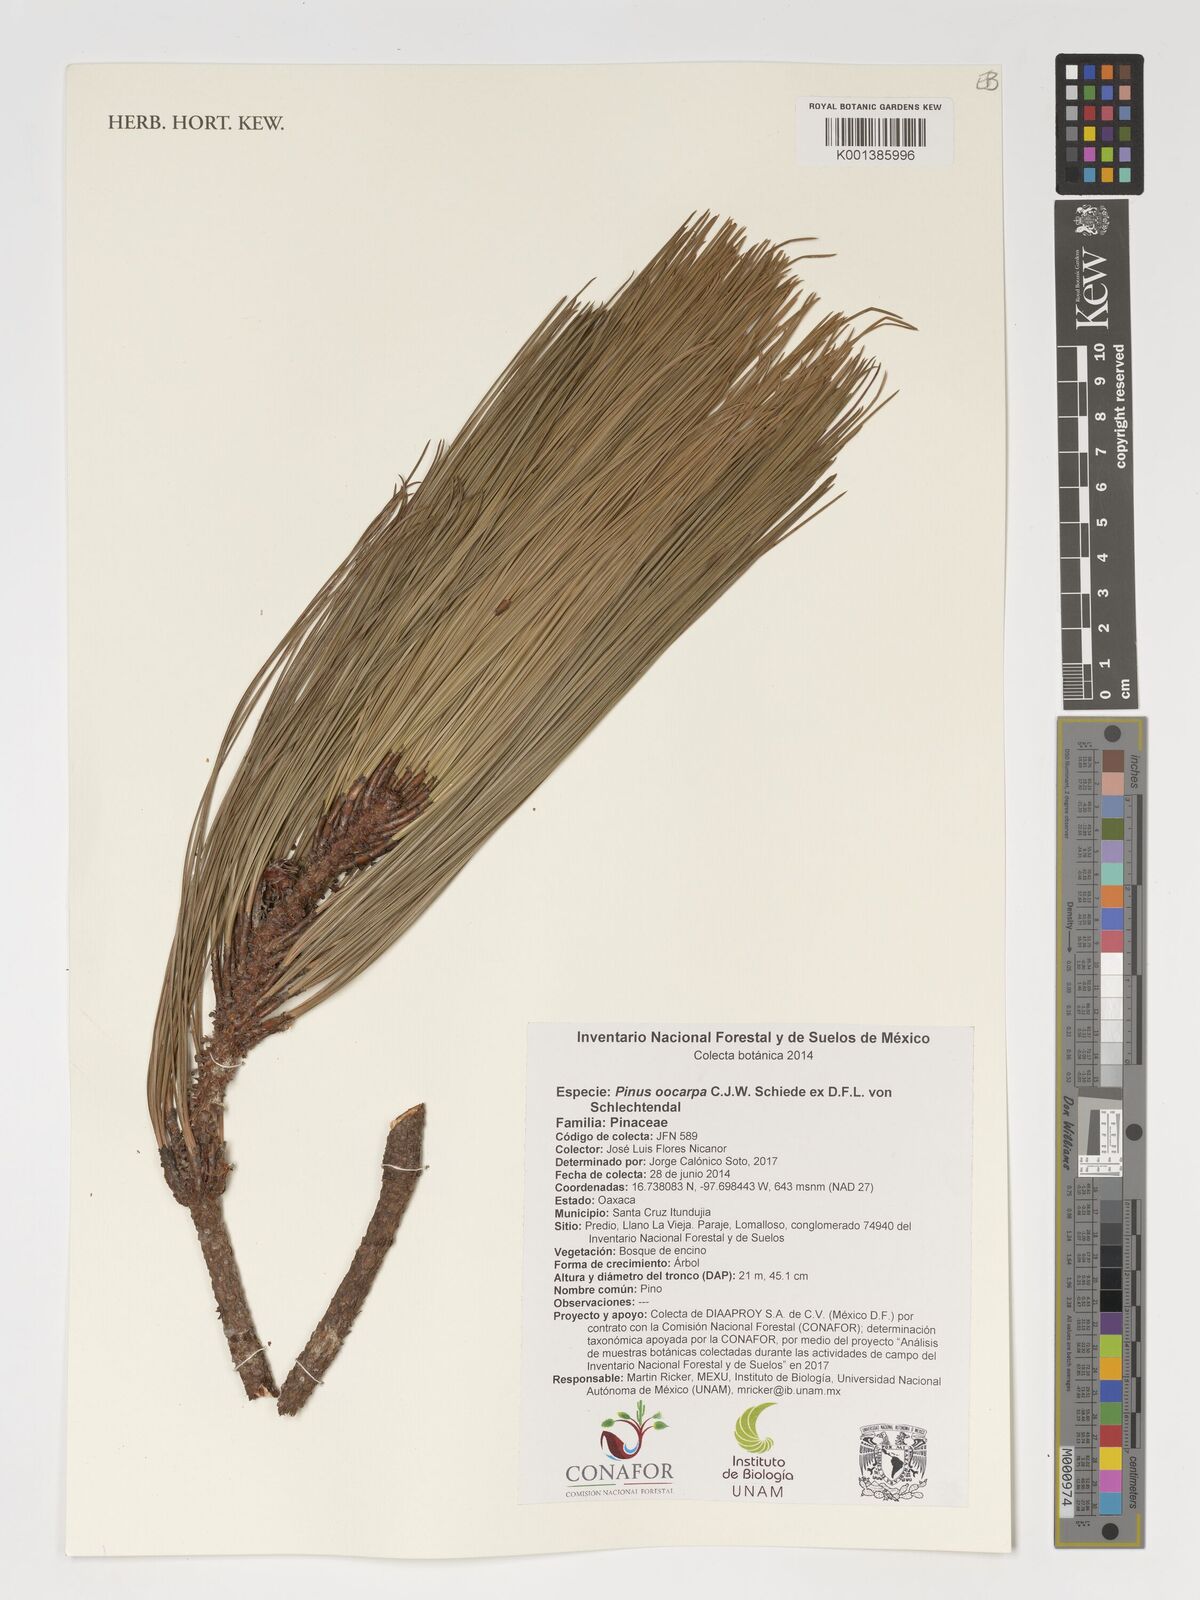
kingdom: Plantae
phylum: Tracheophyta
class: Pinopsida
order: Pinales
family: Pinaceae
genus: Pinus
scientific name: Pinus oocarpa
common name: Egg-cone pine
